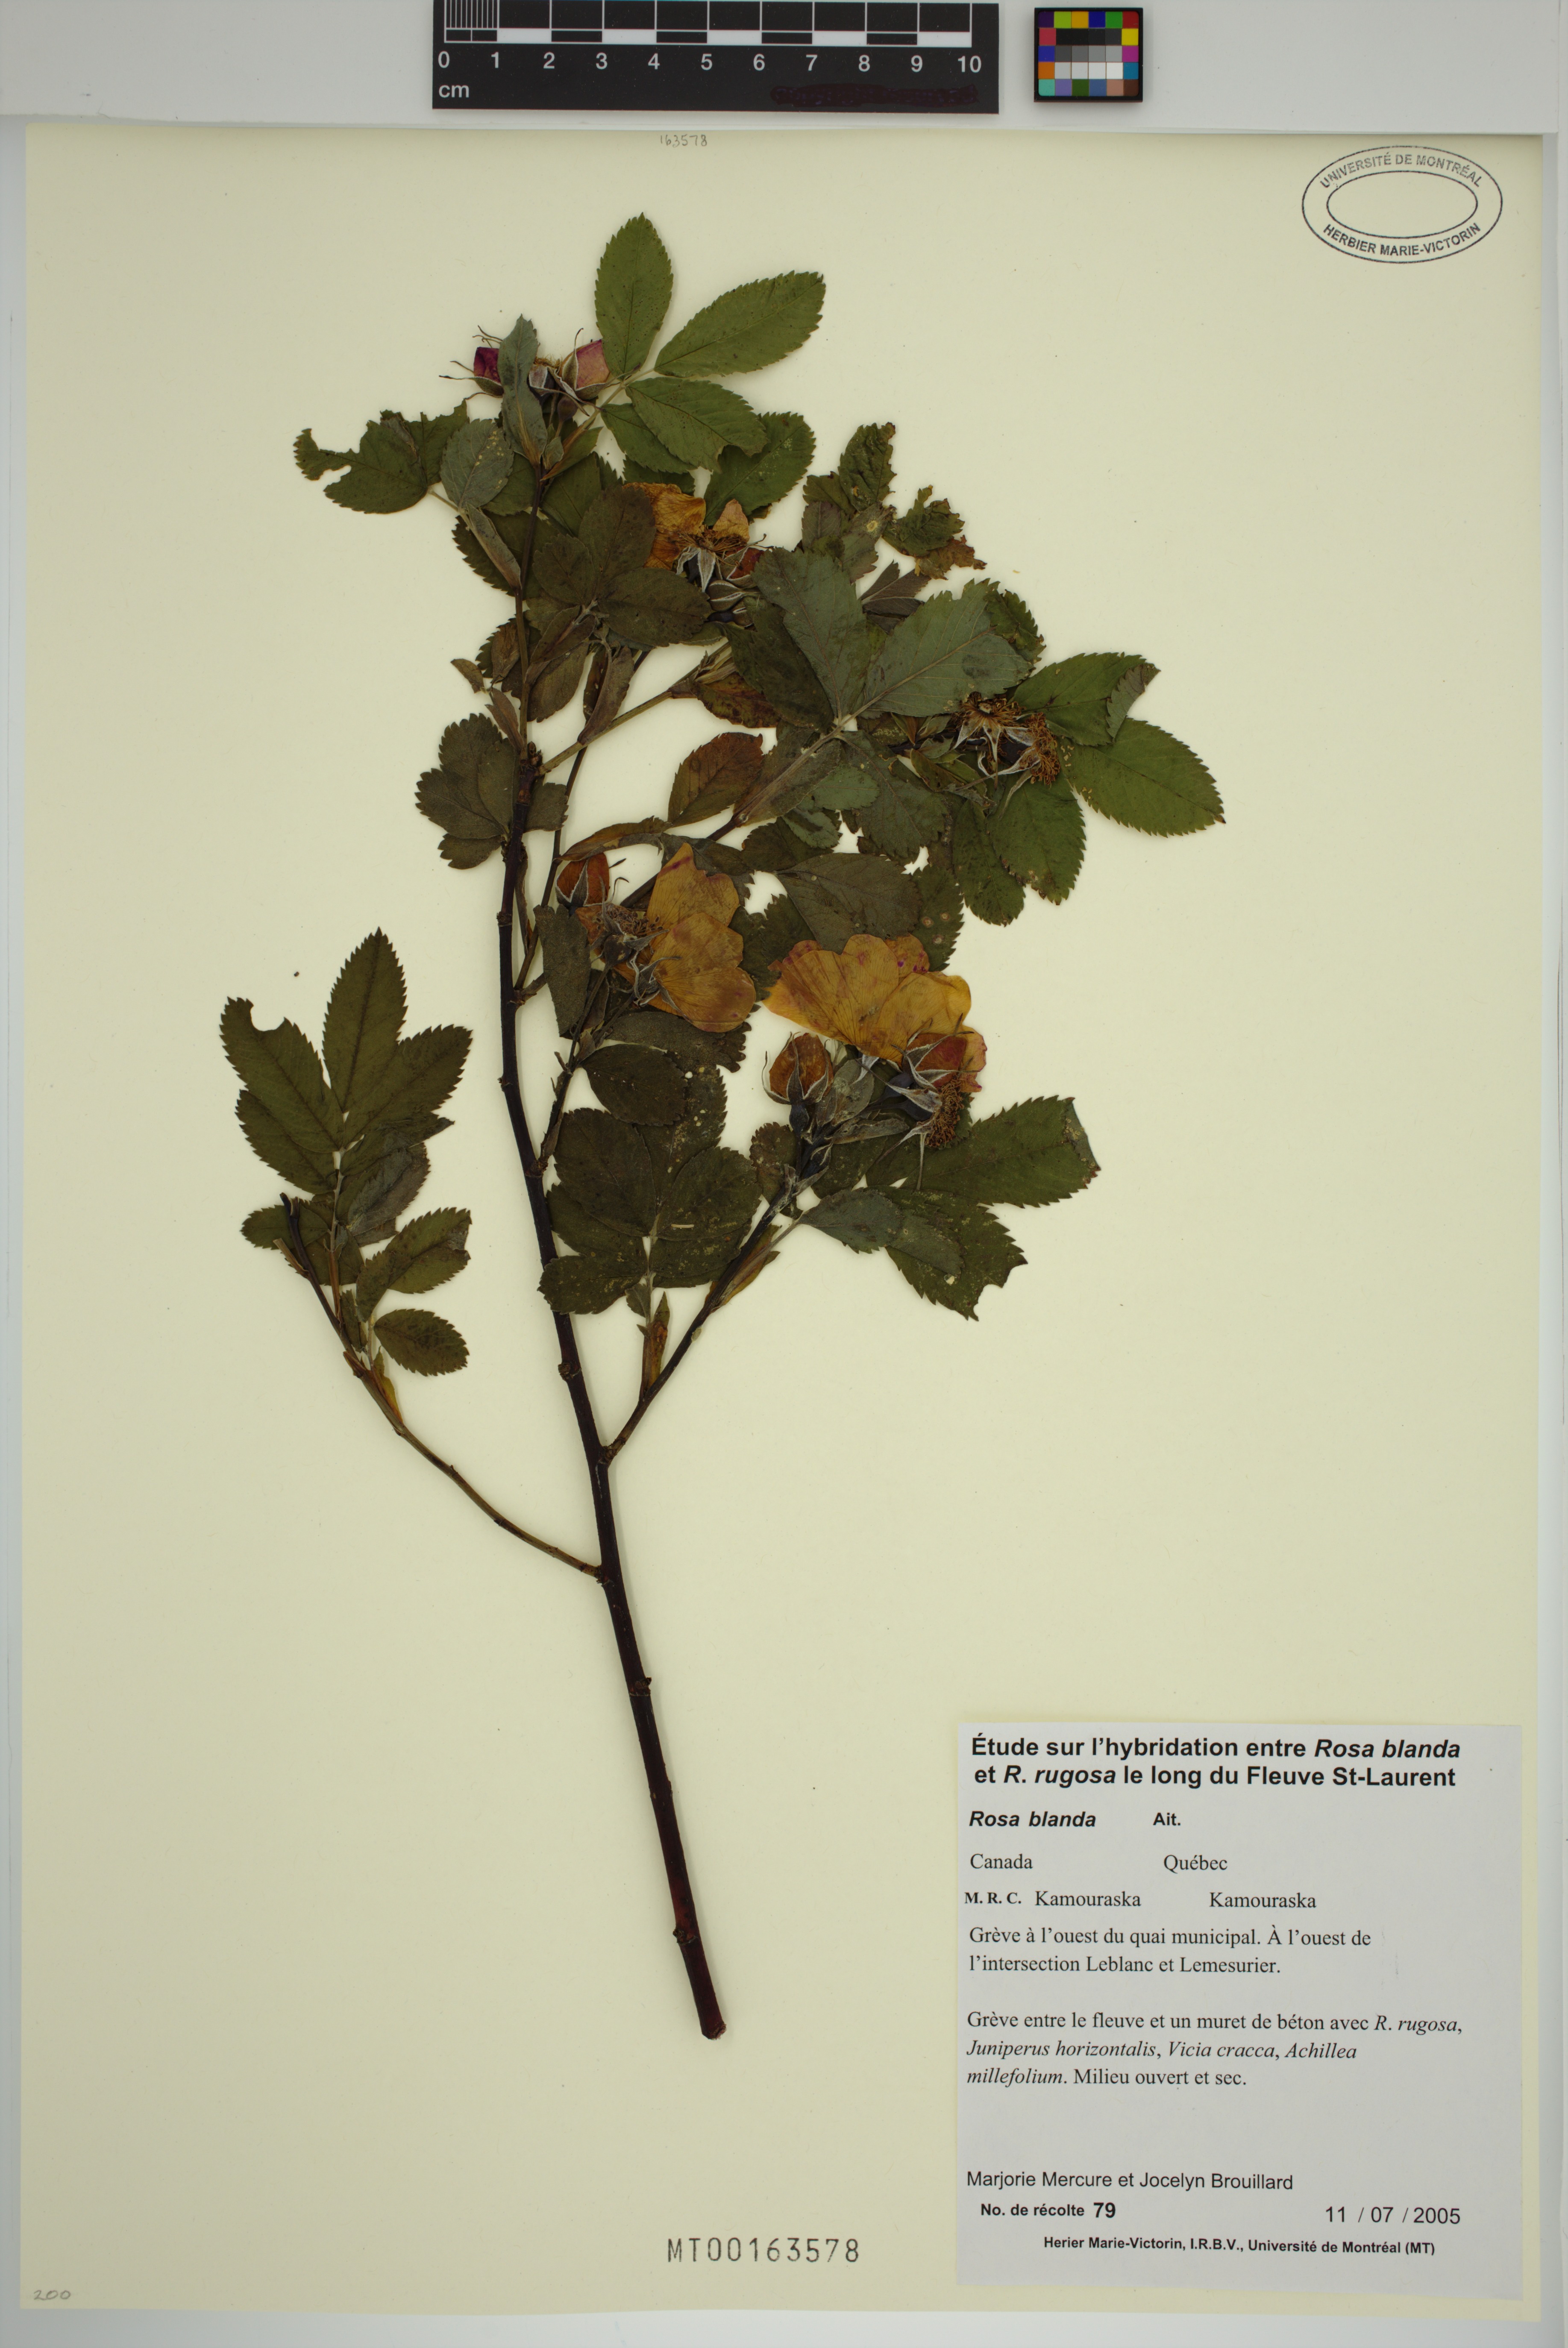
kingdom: Plantae
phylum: Tracheophyta
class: Magnoliopsida
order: Rosales
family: Rosaceae
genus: Rosa
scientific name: Rosa blanda
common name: Smooth rose
